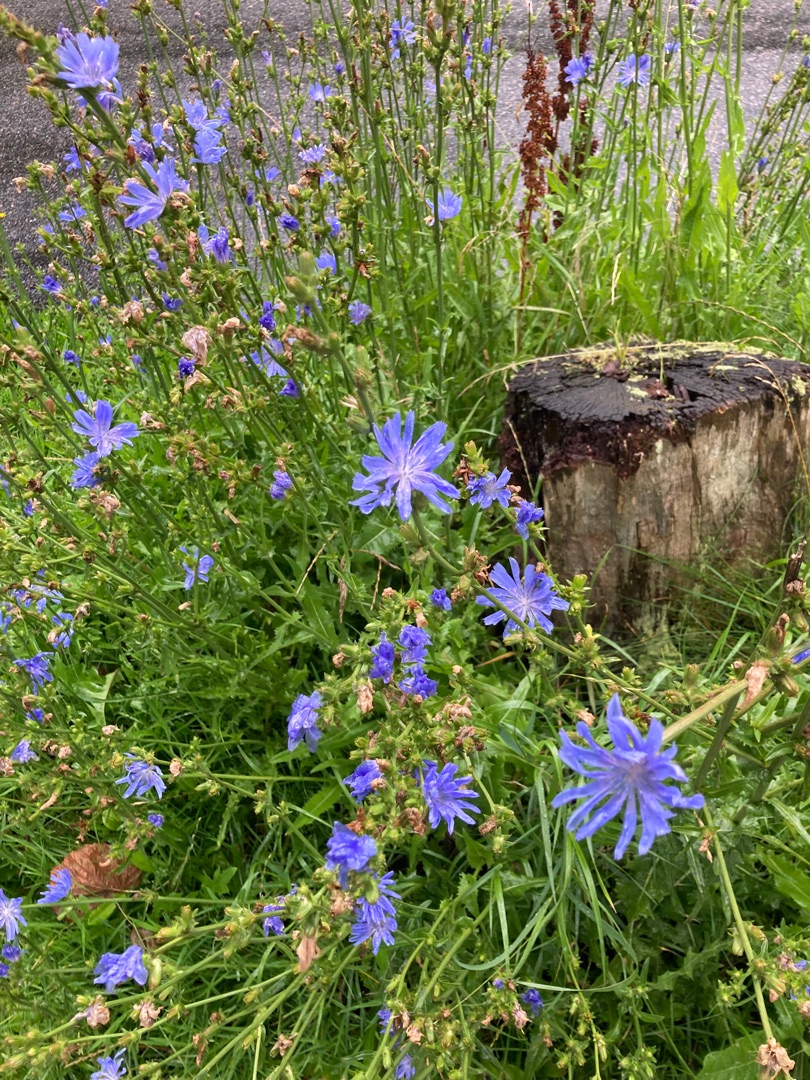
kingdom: Plantae
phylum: Tracheophyta
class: Magnoliopsida
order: Asterales
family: Asteraceae
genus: Cichorium
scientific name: Cichorium intybus
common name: Cikorie (varietet)
